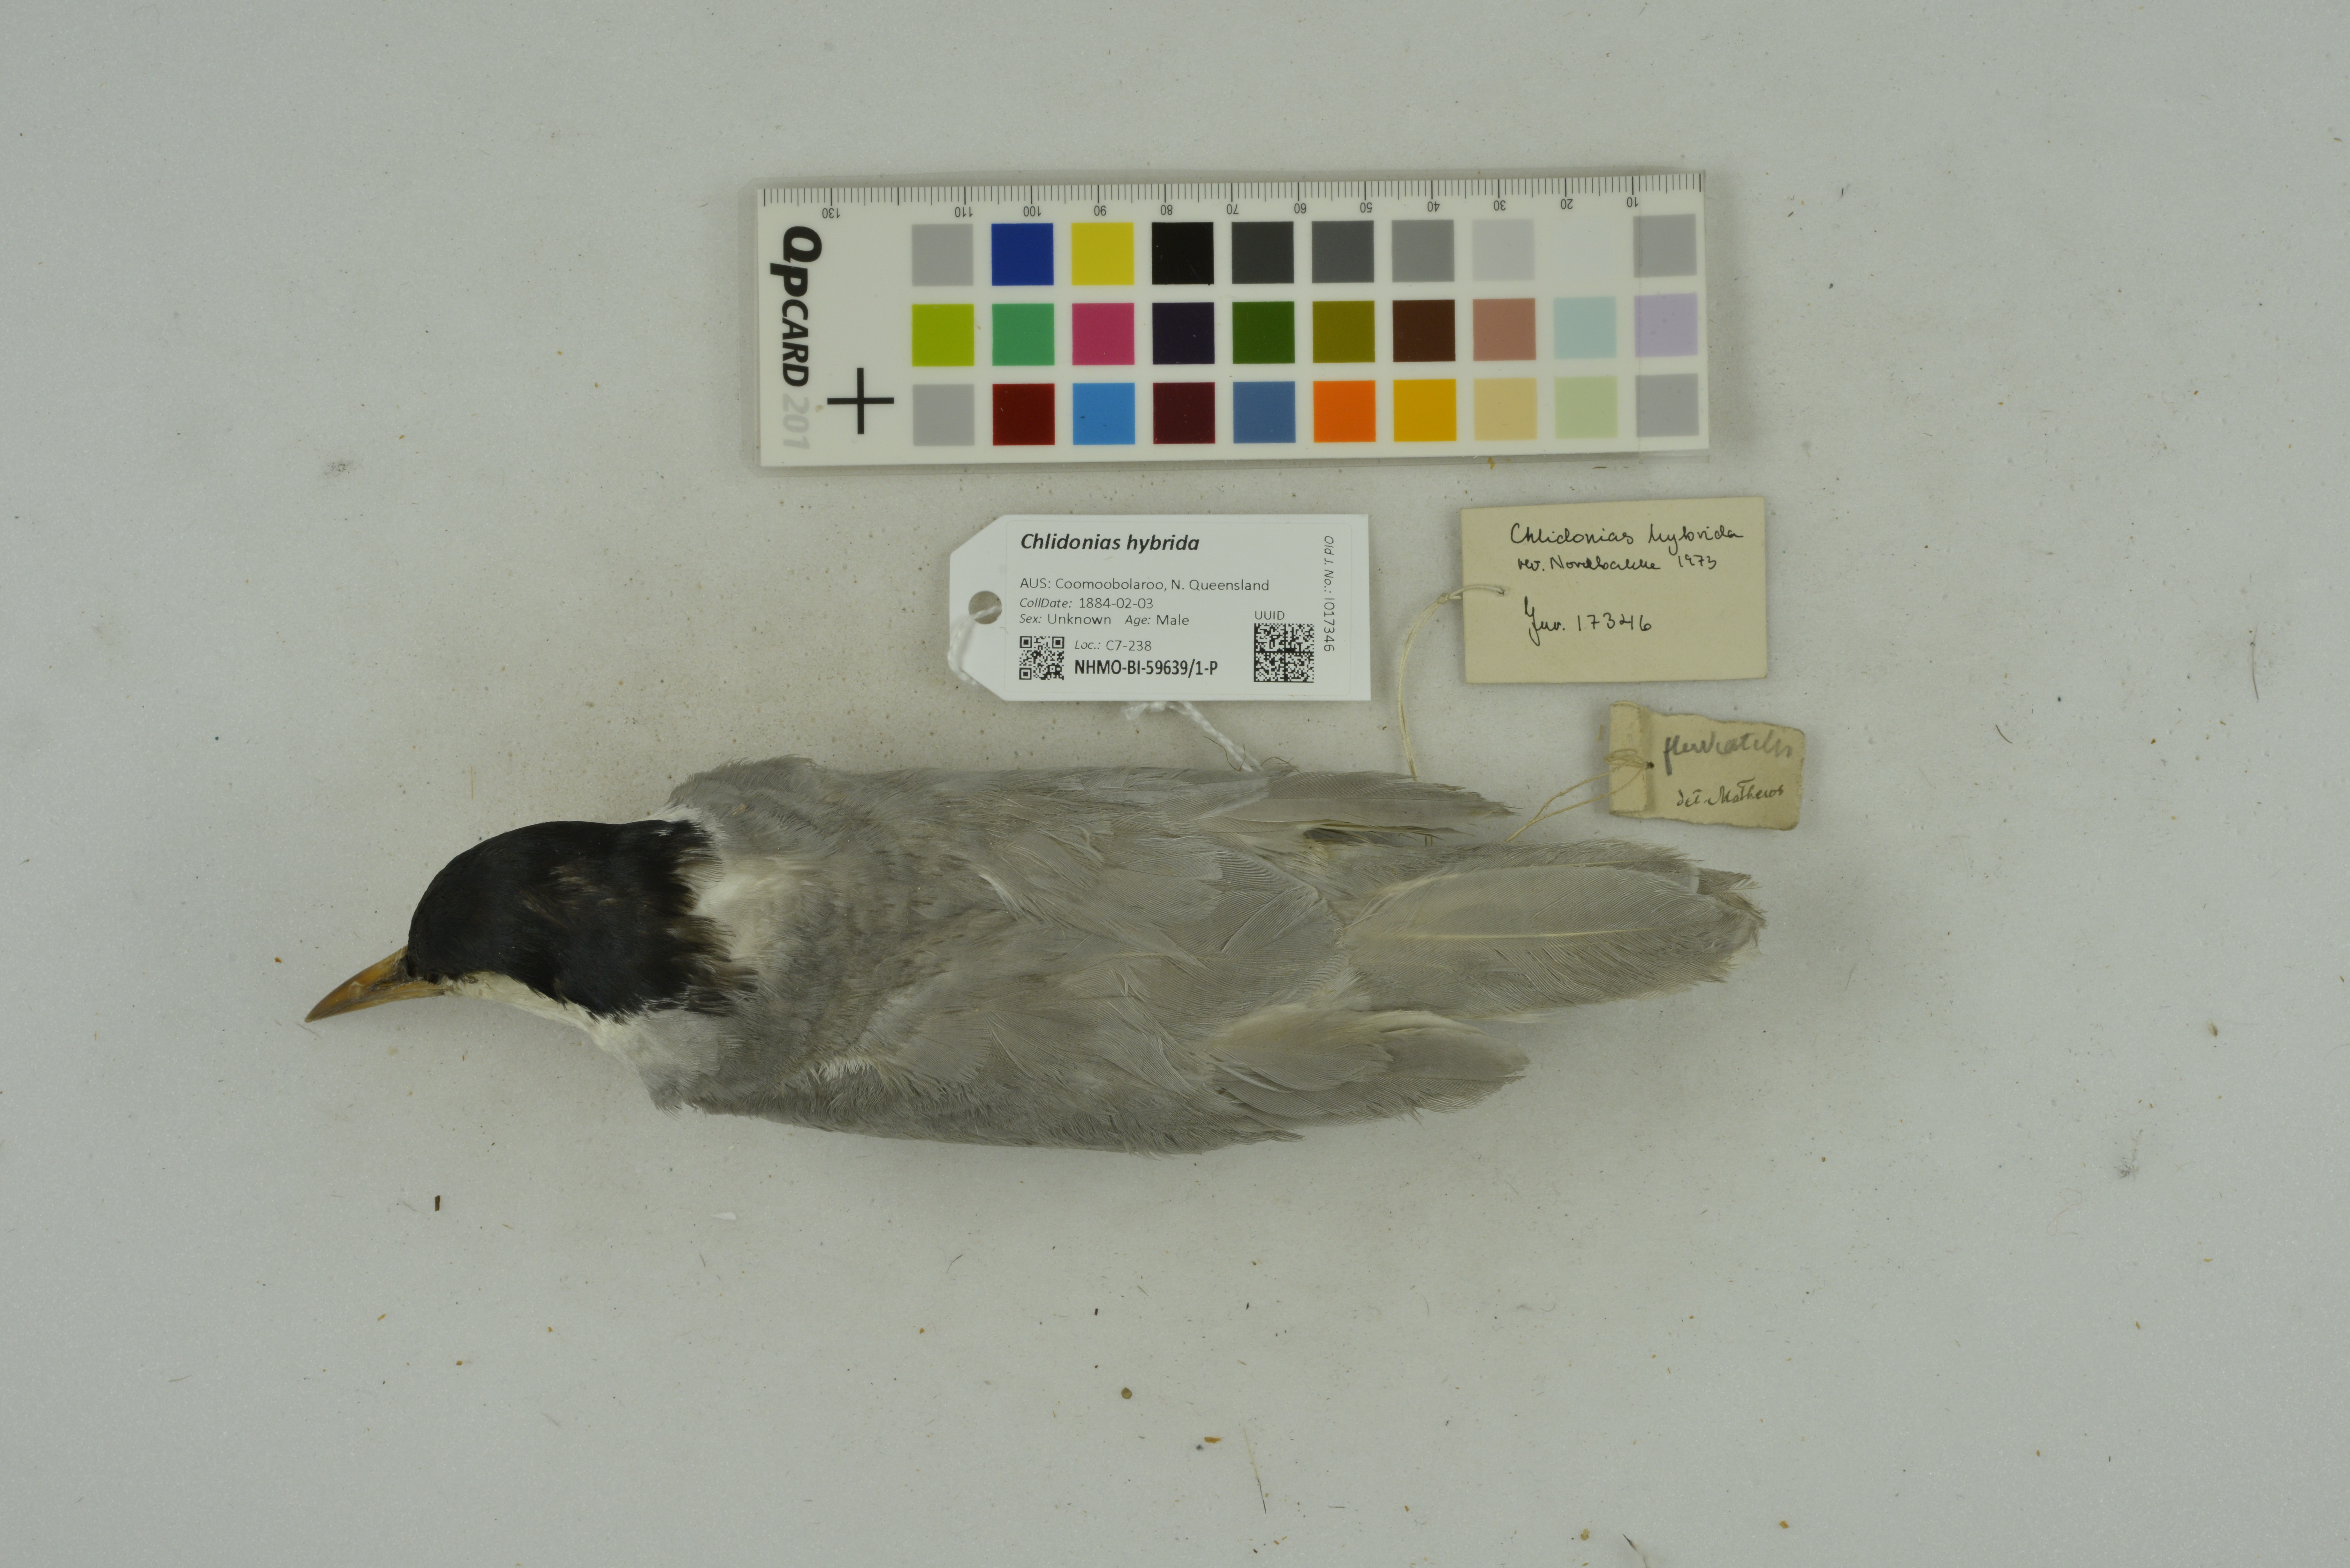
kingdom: Animalia
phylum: Chordata
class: Aves
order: Charadriiformes
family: Laridae
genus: Chlidonias
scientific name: Chlidonias hybrida
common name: Whiskered tern
